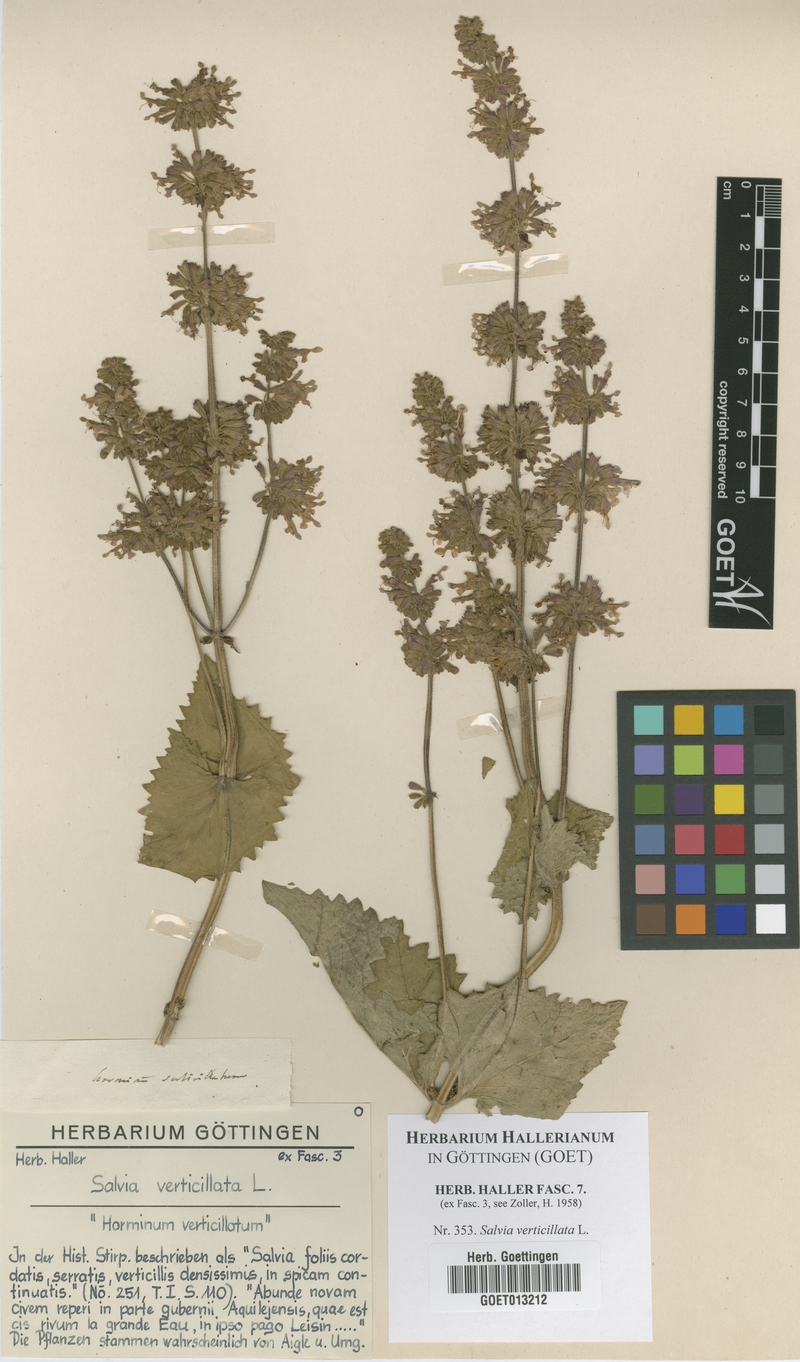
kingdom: Plantae
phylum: Tracheophyta
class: Magnoliopsida
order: Lamiales
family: Lamiaceae
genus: Salvia
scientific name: Salvia verticillata
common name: Whorled clary
